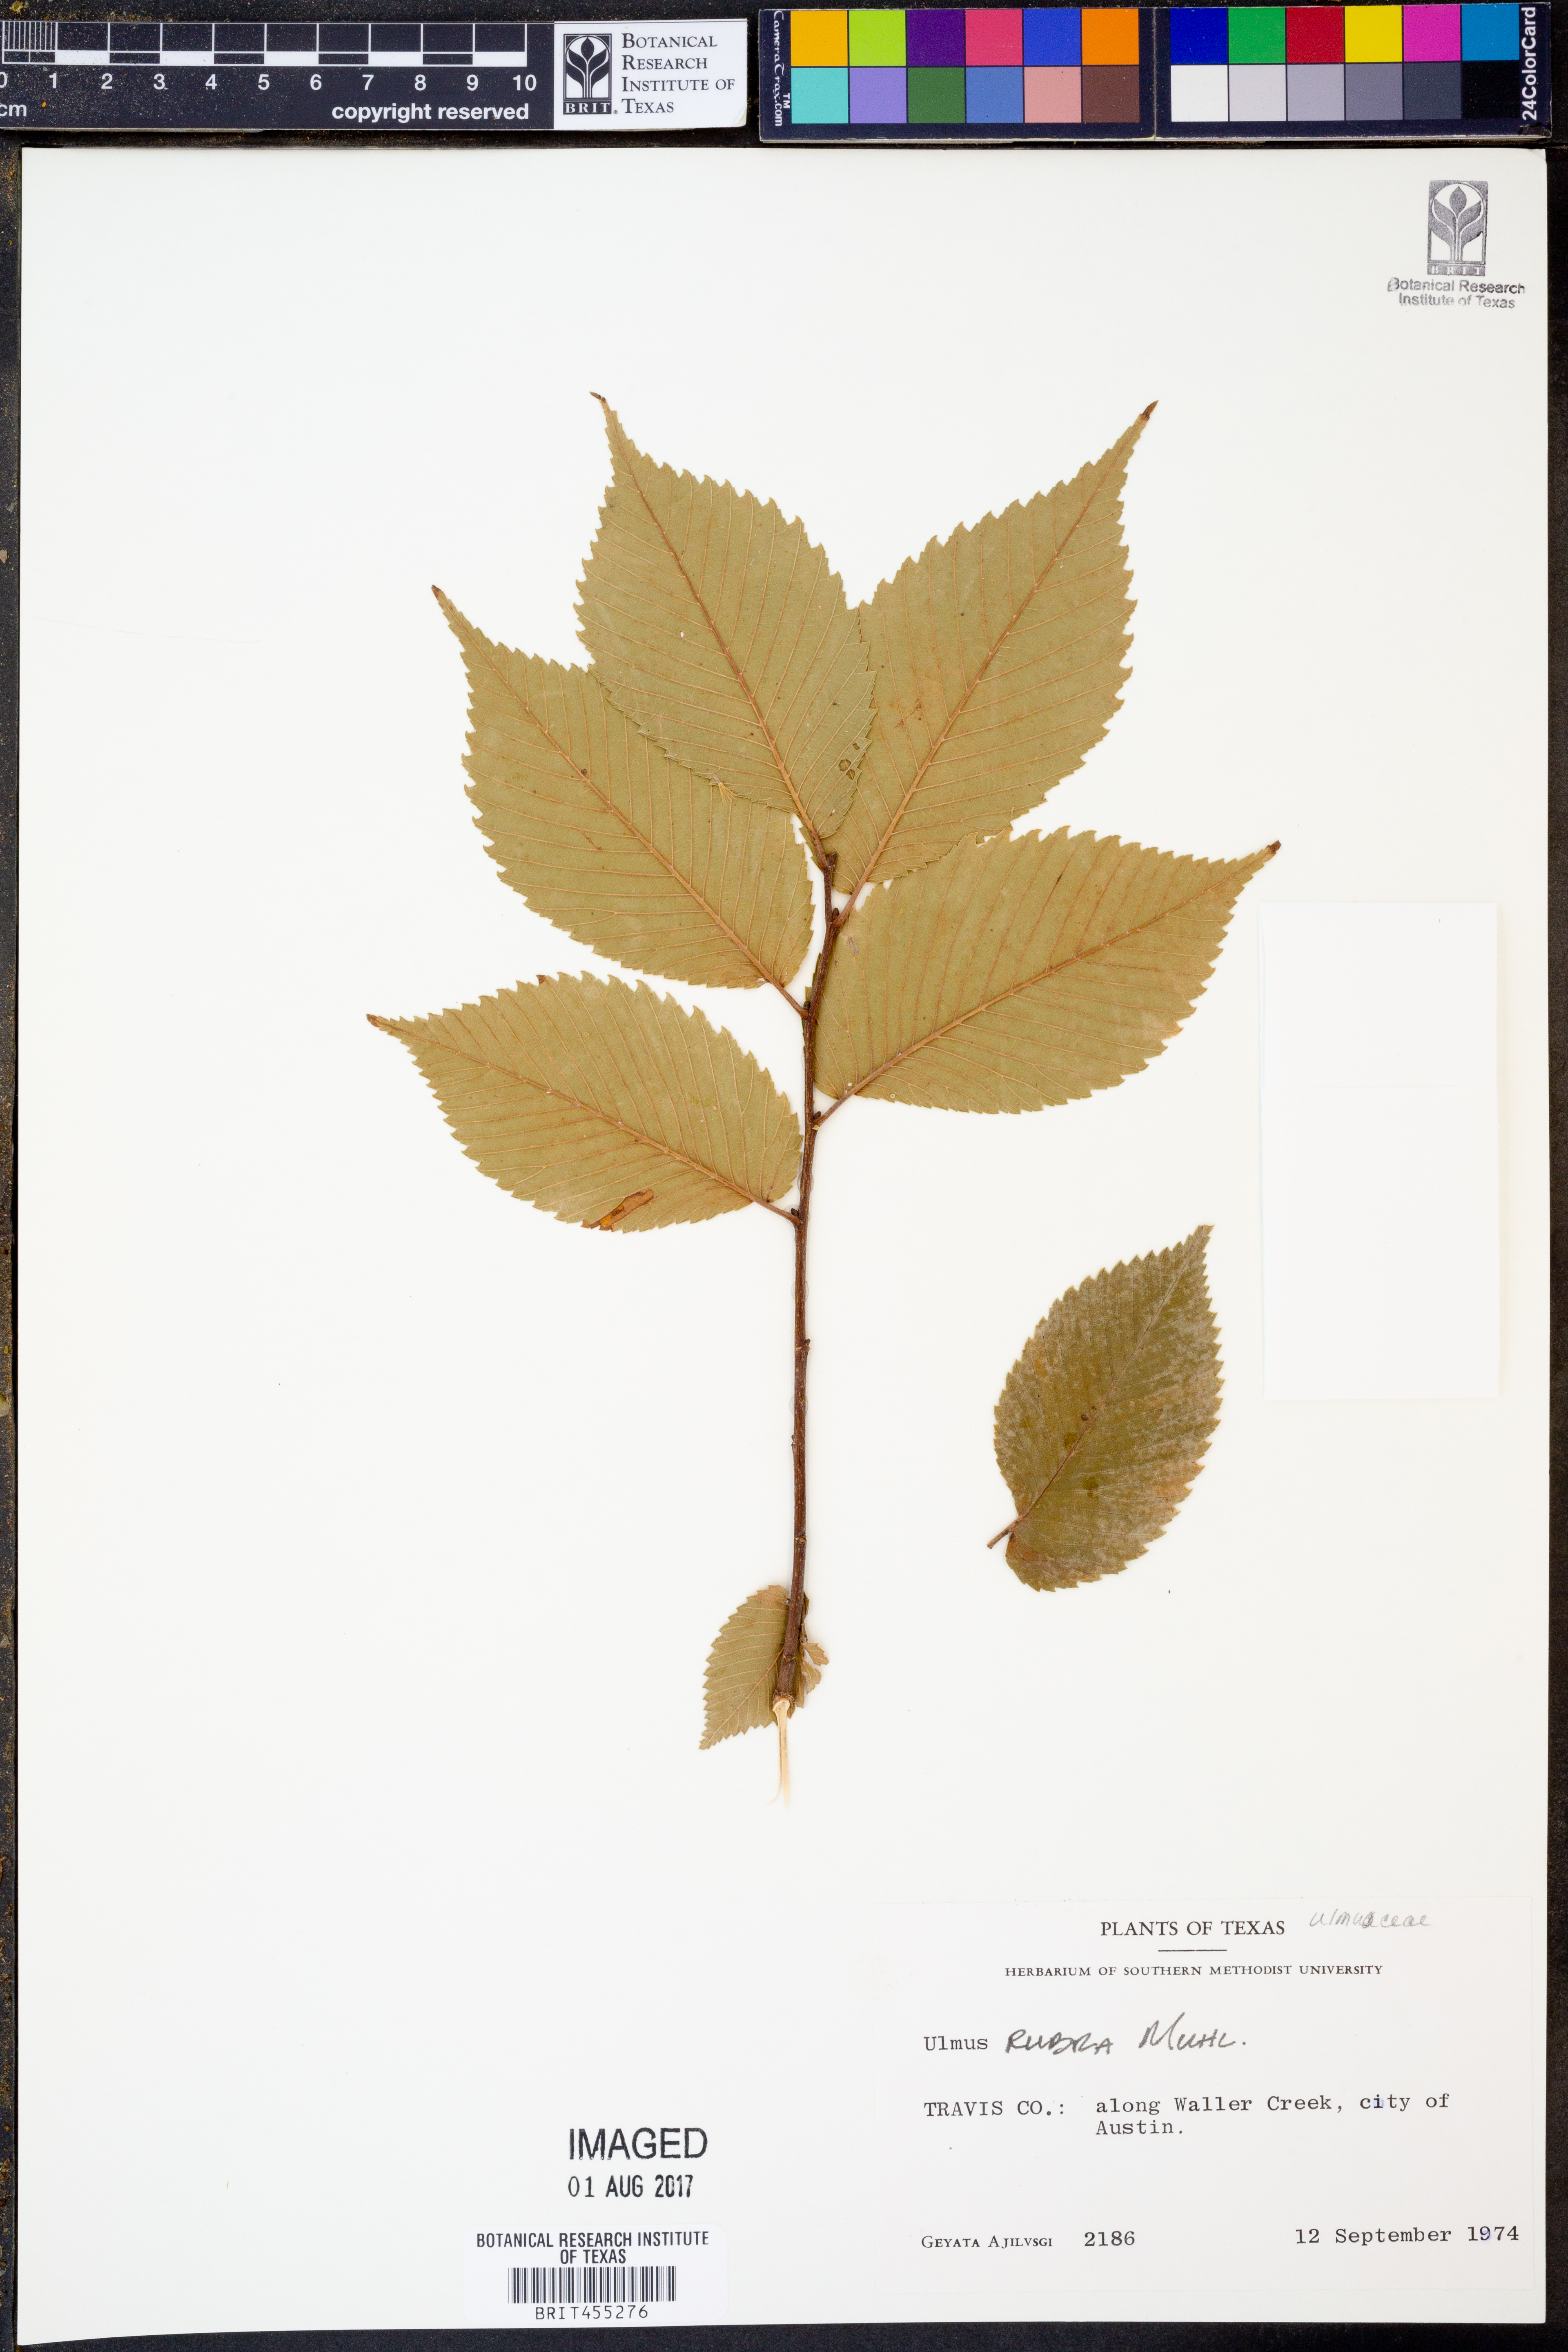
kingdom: Plantae
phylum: Tracheophyta
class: Magnoliopsida
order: Rosales
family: Ulmaceae
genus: Ulmus
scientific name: Ulmus rubra
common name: Slippery elm
